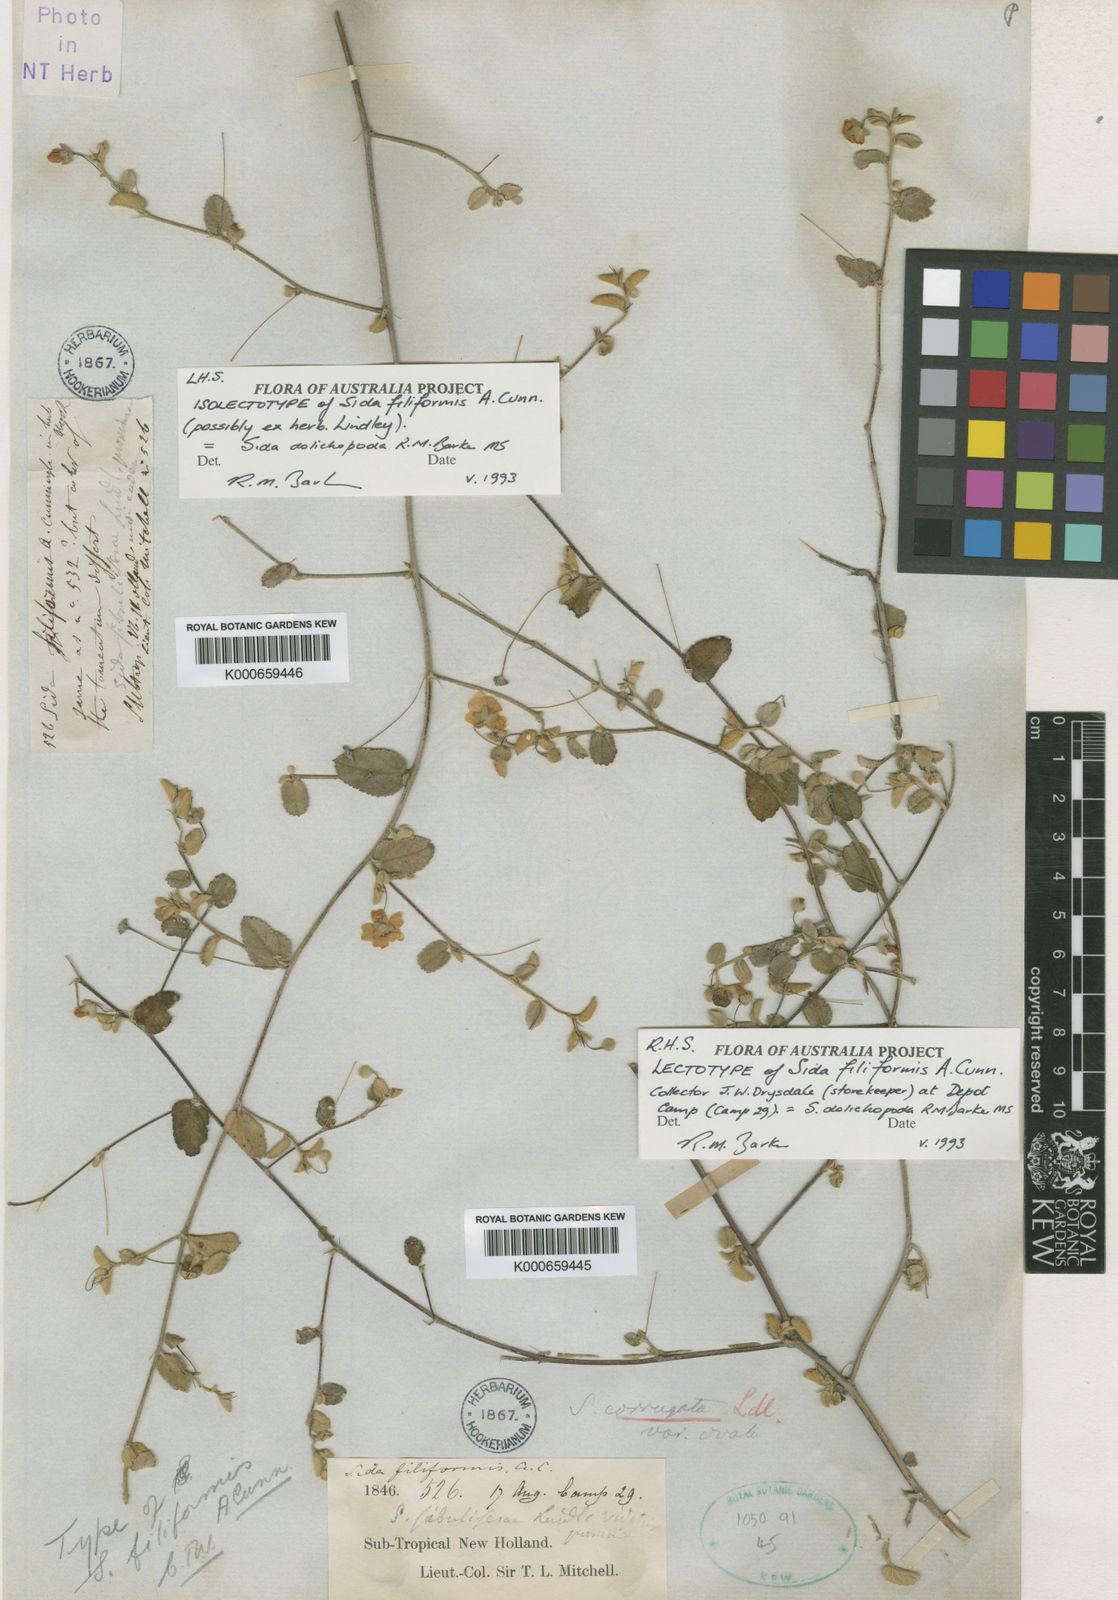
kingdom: Plantae
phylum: Tracheophyta
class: Magnoliopsida
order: Malvales
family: Malvaceae
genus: Sida
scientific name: Sida corrugata
